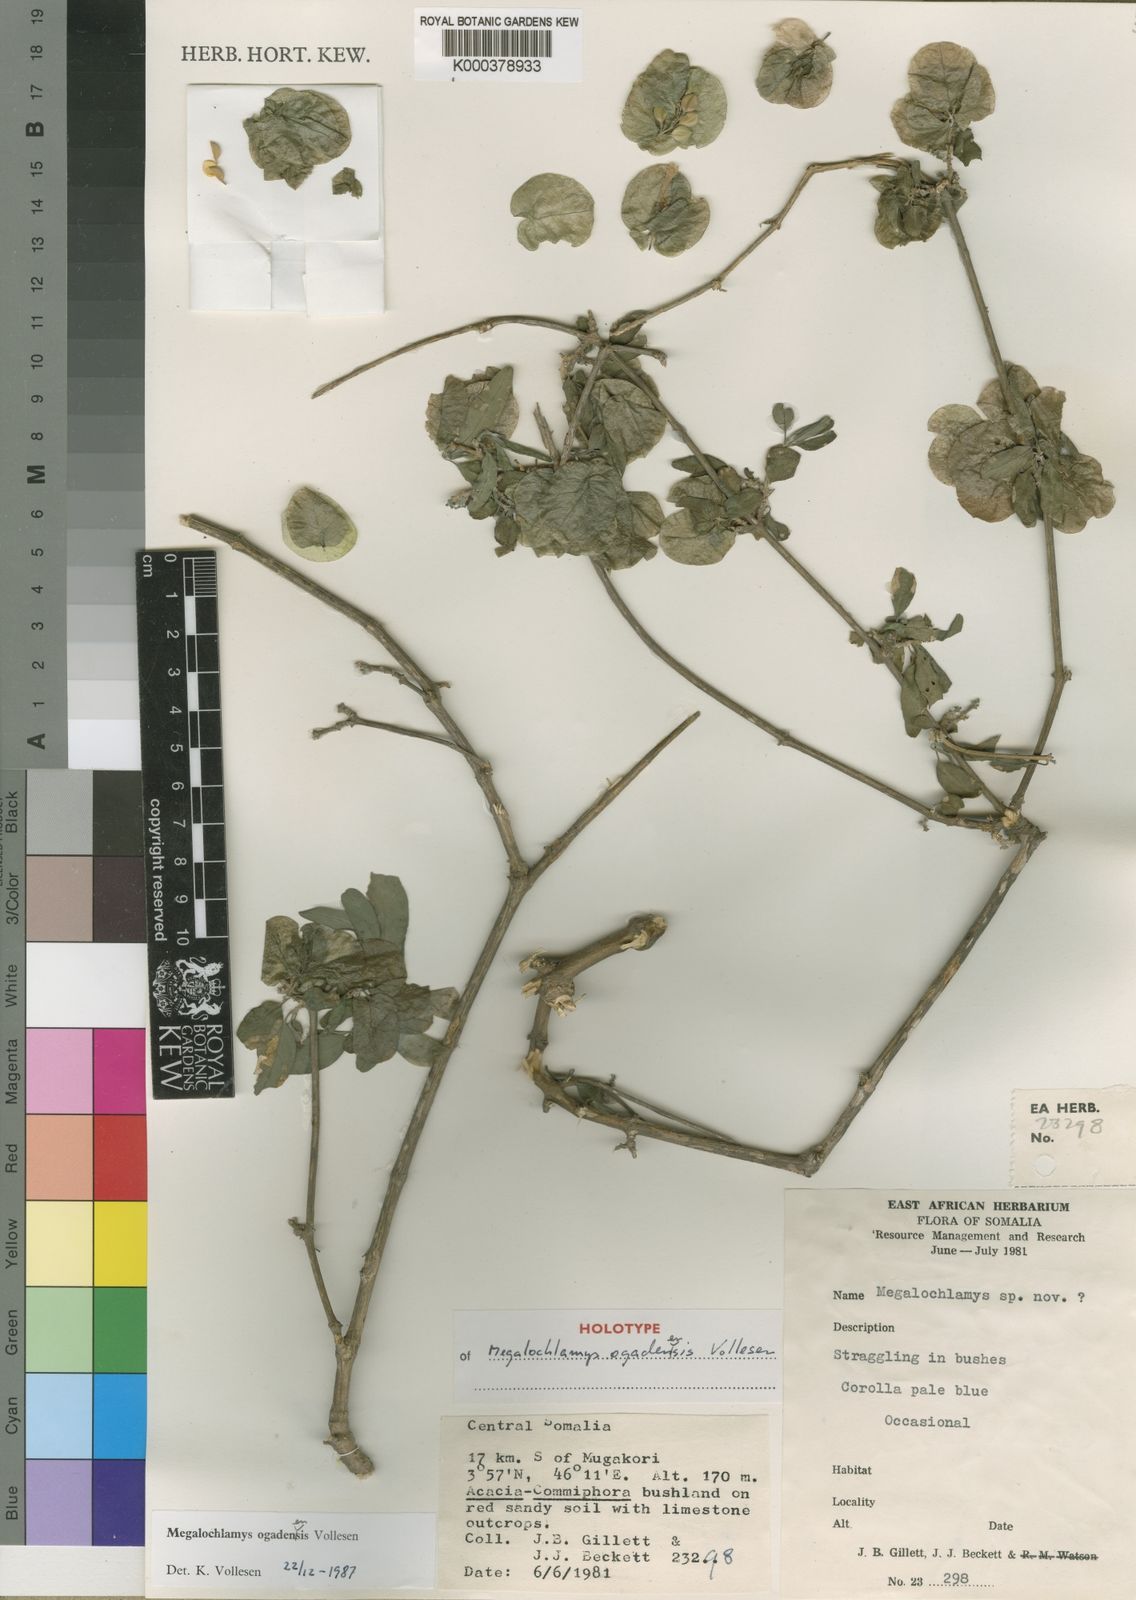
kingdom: Plantae
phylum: Tracheophyta
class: Magnoliopsida
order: Lamiales
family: Acanthaceae
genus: Megalochlamys
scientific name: Megalochlamys ogadenensis
